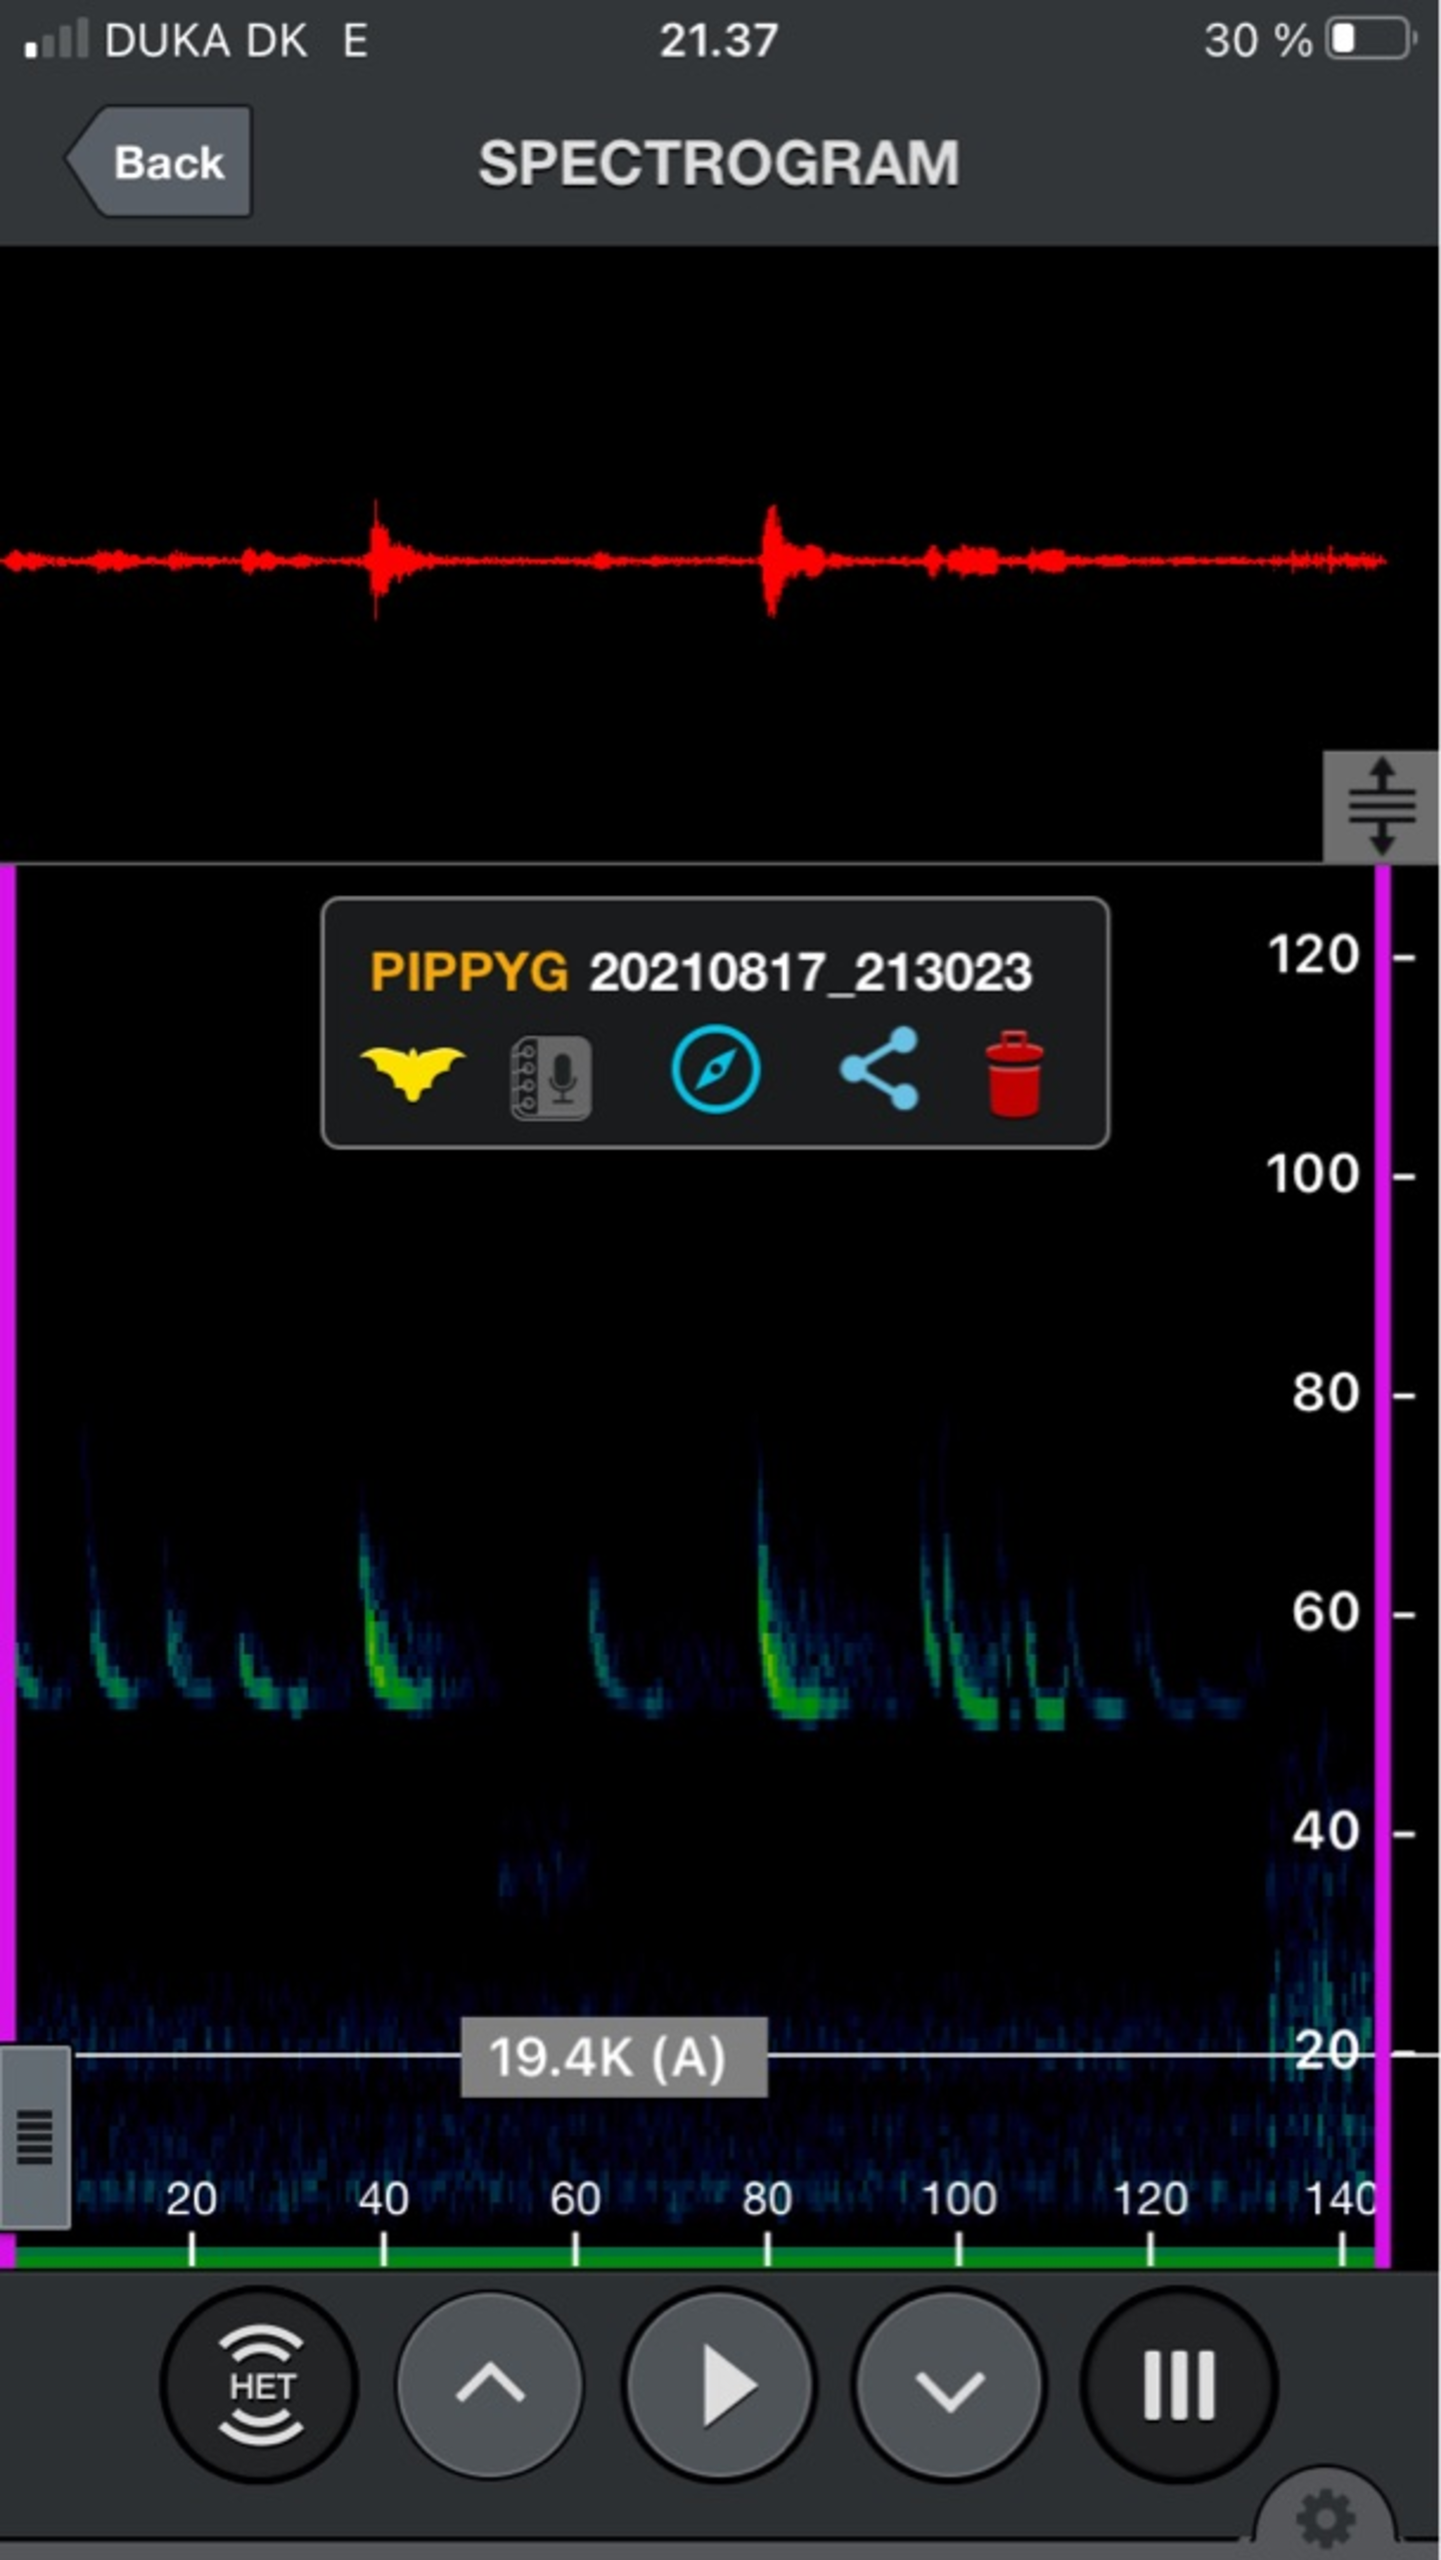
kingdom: Animalia
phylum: Chordata
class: Mammalia
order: Chiroptera
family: Vespertilionidae
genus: Pipistrellus
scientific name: Pipistrellus pygmaeus
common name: Dværgflagermus
